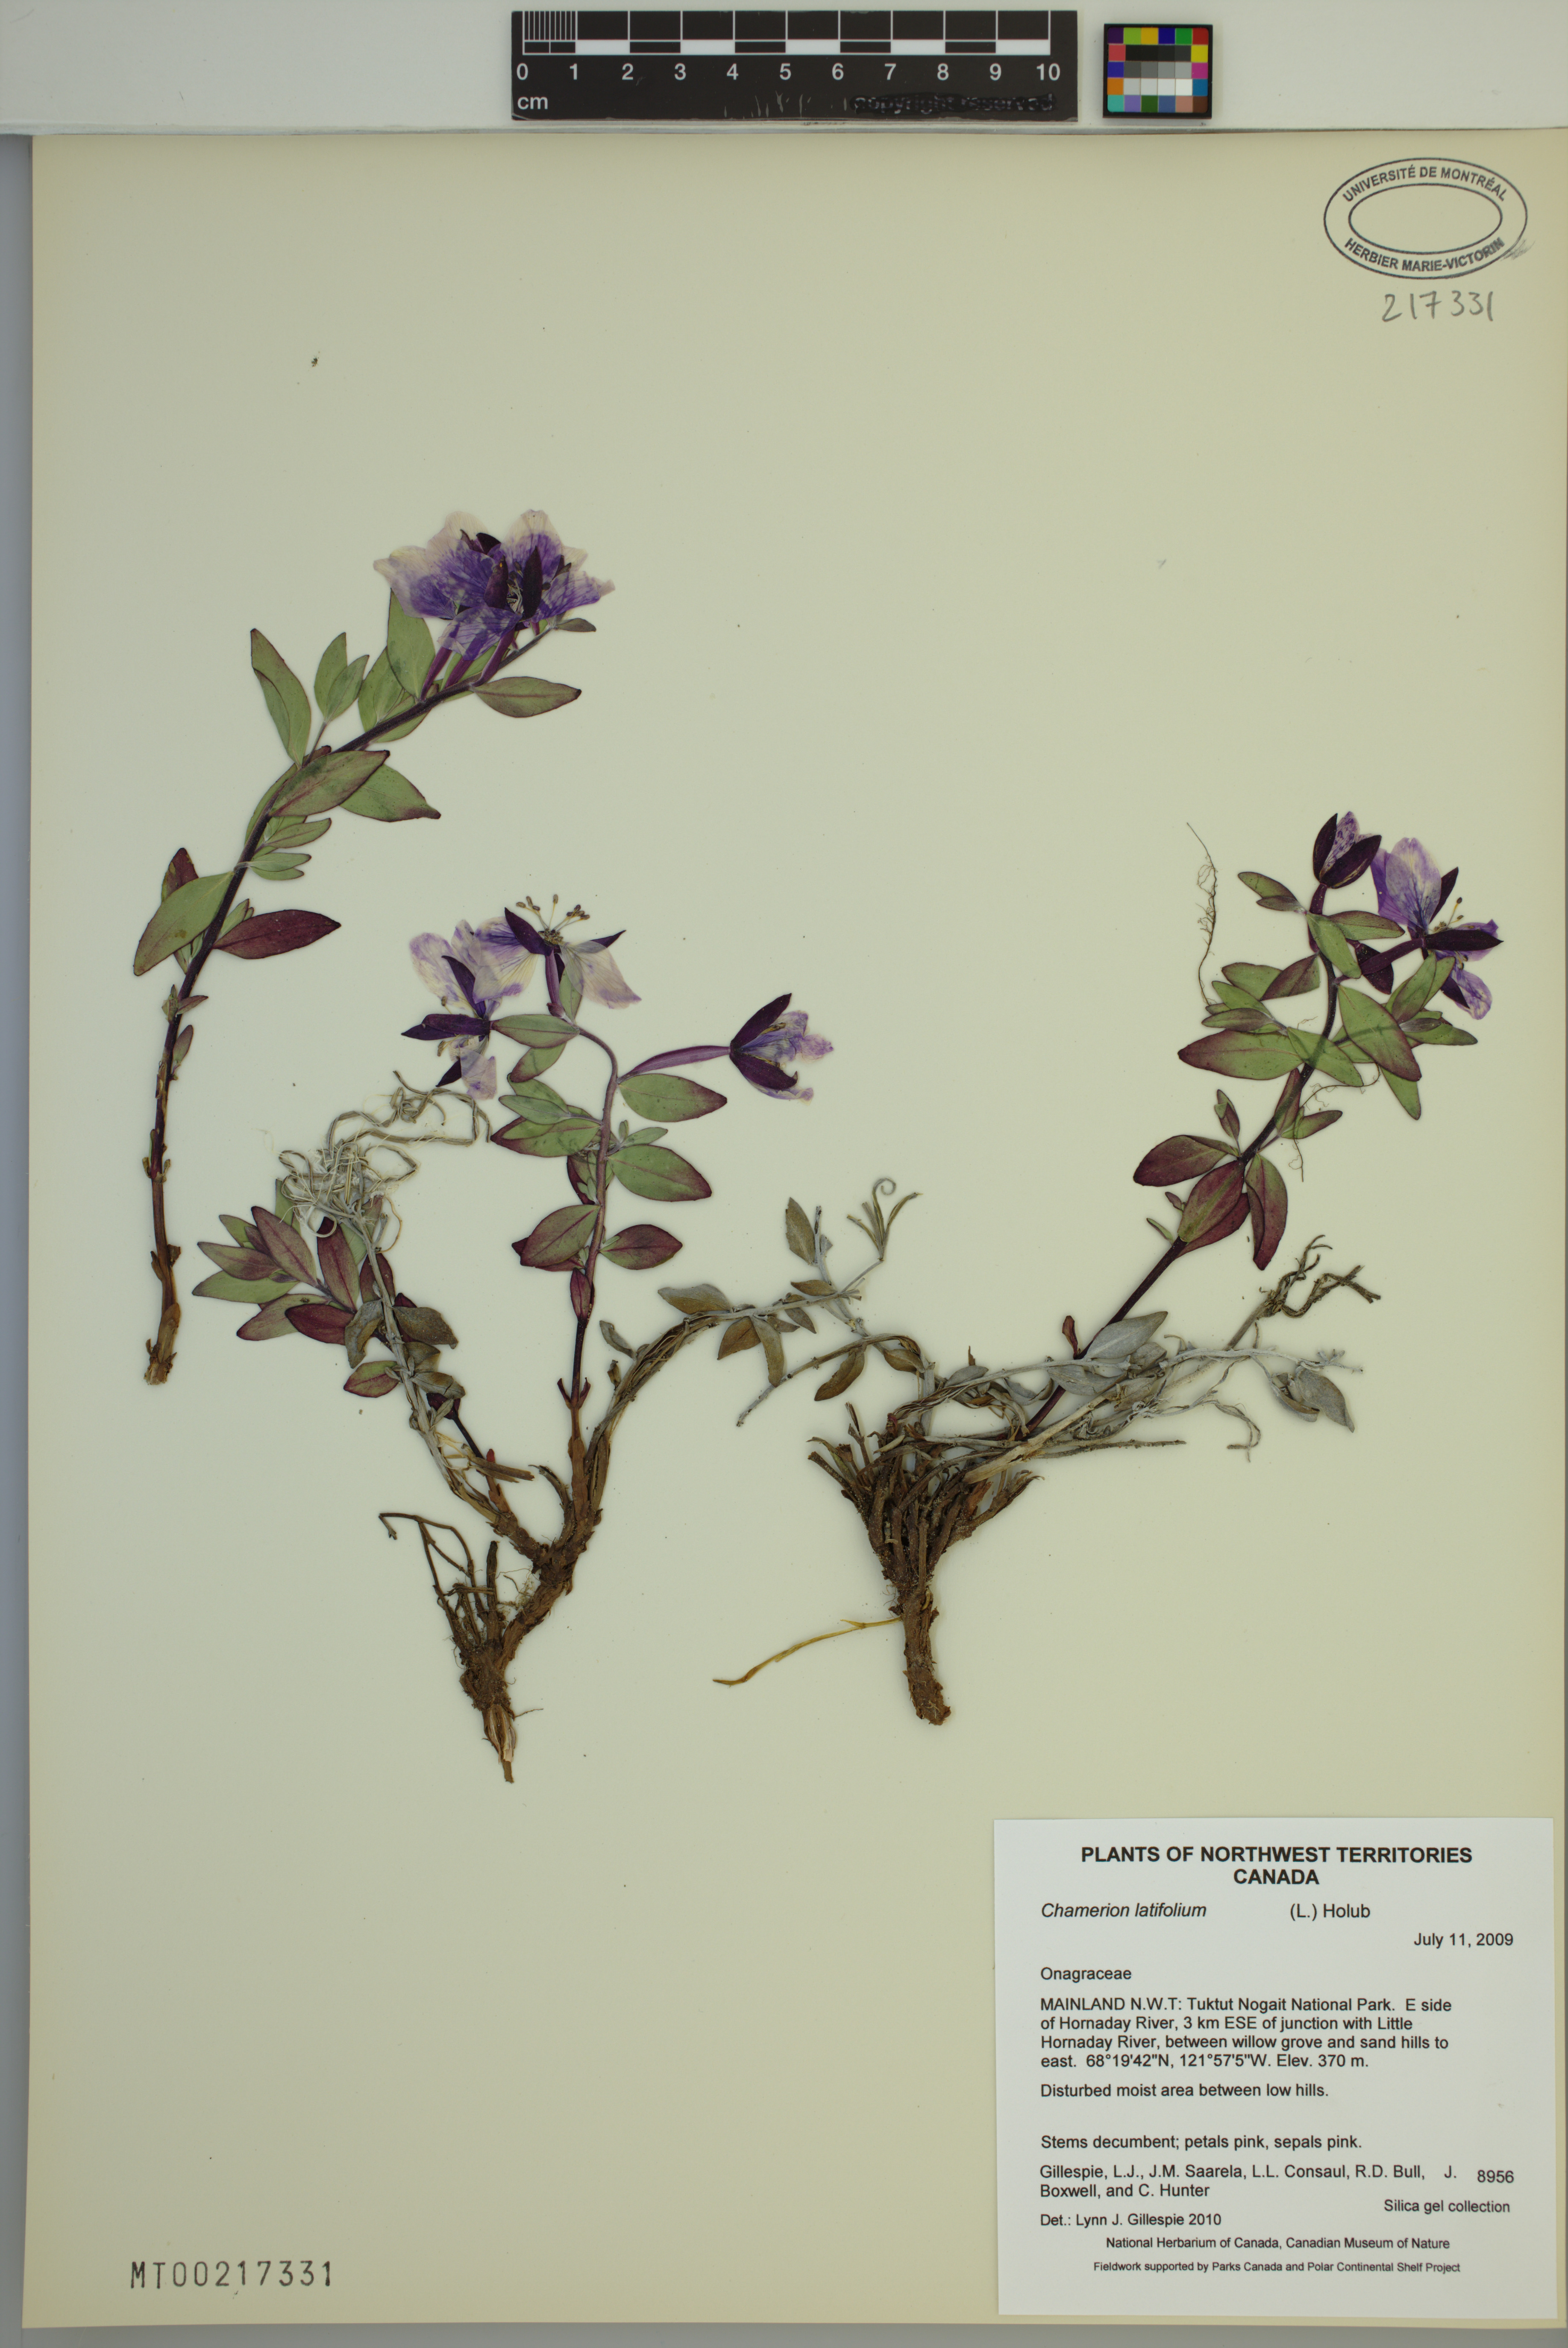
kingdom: Plantae
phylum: Tracheophyta
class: Magnoliopsida
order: Myrtales
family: Onagraceae
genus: Chamaenerion
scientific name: Chamaenerion latifolium
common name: Dwarf fireweed
